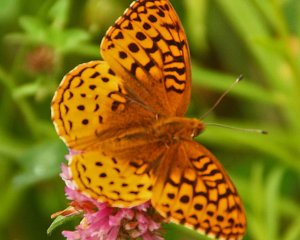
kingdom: Animalia
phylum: Arthropoda
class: Insecta
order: Lepidoptera
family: Nymphalidae
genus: Speyeria
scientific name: Speyeria cybele
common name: Great Spangled Fritillary
